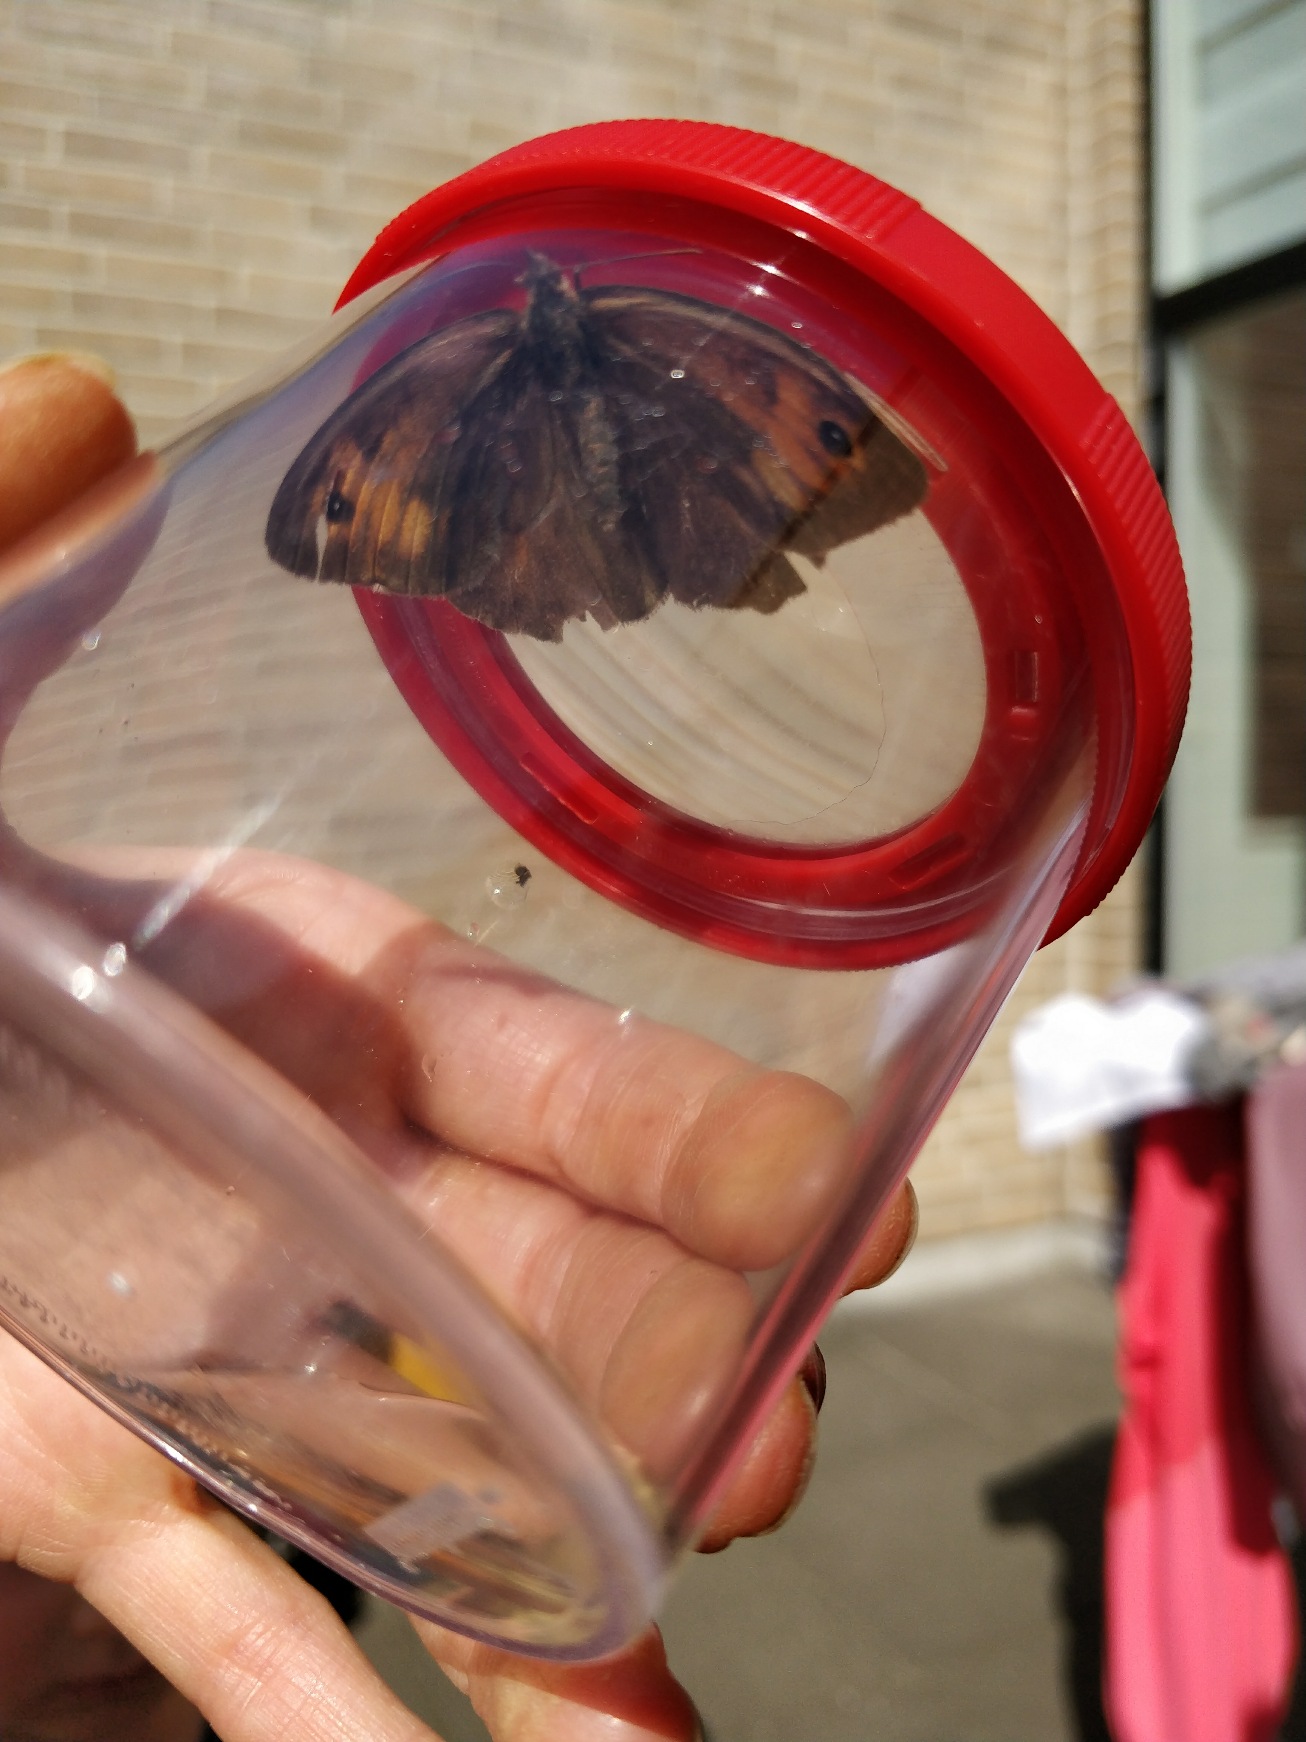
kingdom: Animalia
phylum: Arthropoda
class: Insecta
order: Lepidoptera
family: Nymphalidae
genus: Maniola
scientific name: Maniola jurtina
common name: Græsrandøje
